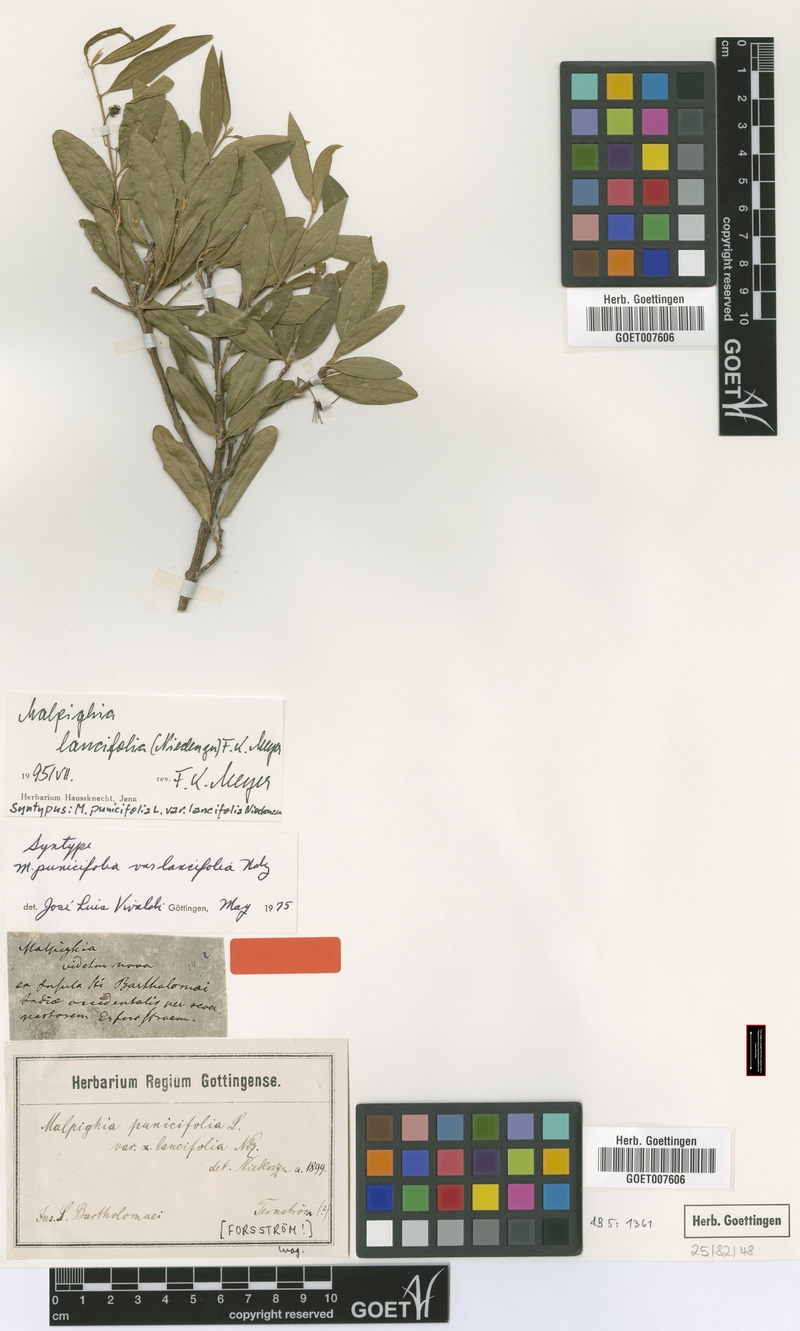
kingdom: Plantae
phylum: Tracheophyta
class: Magnoliopsida
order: Malpighiales
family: Malpighiaceae
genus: Malpighia
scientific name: Malpighia emarginata
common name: Barbados cherry
